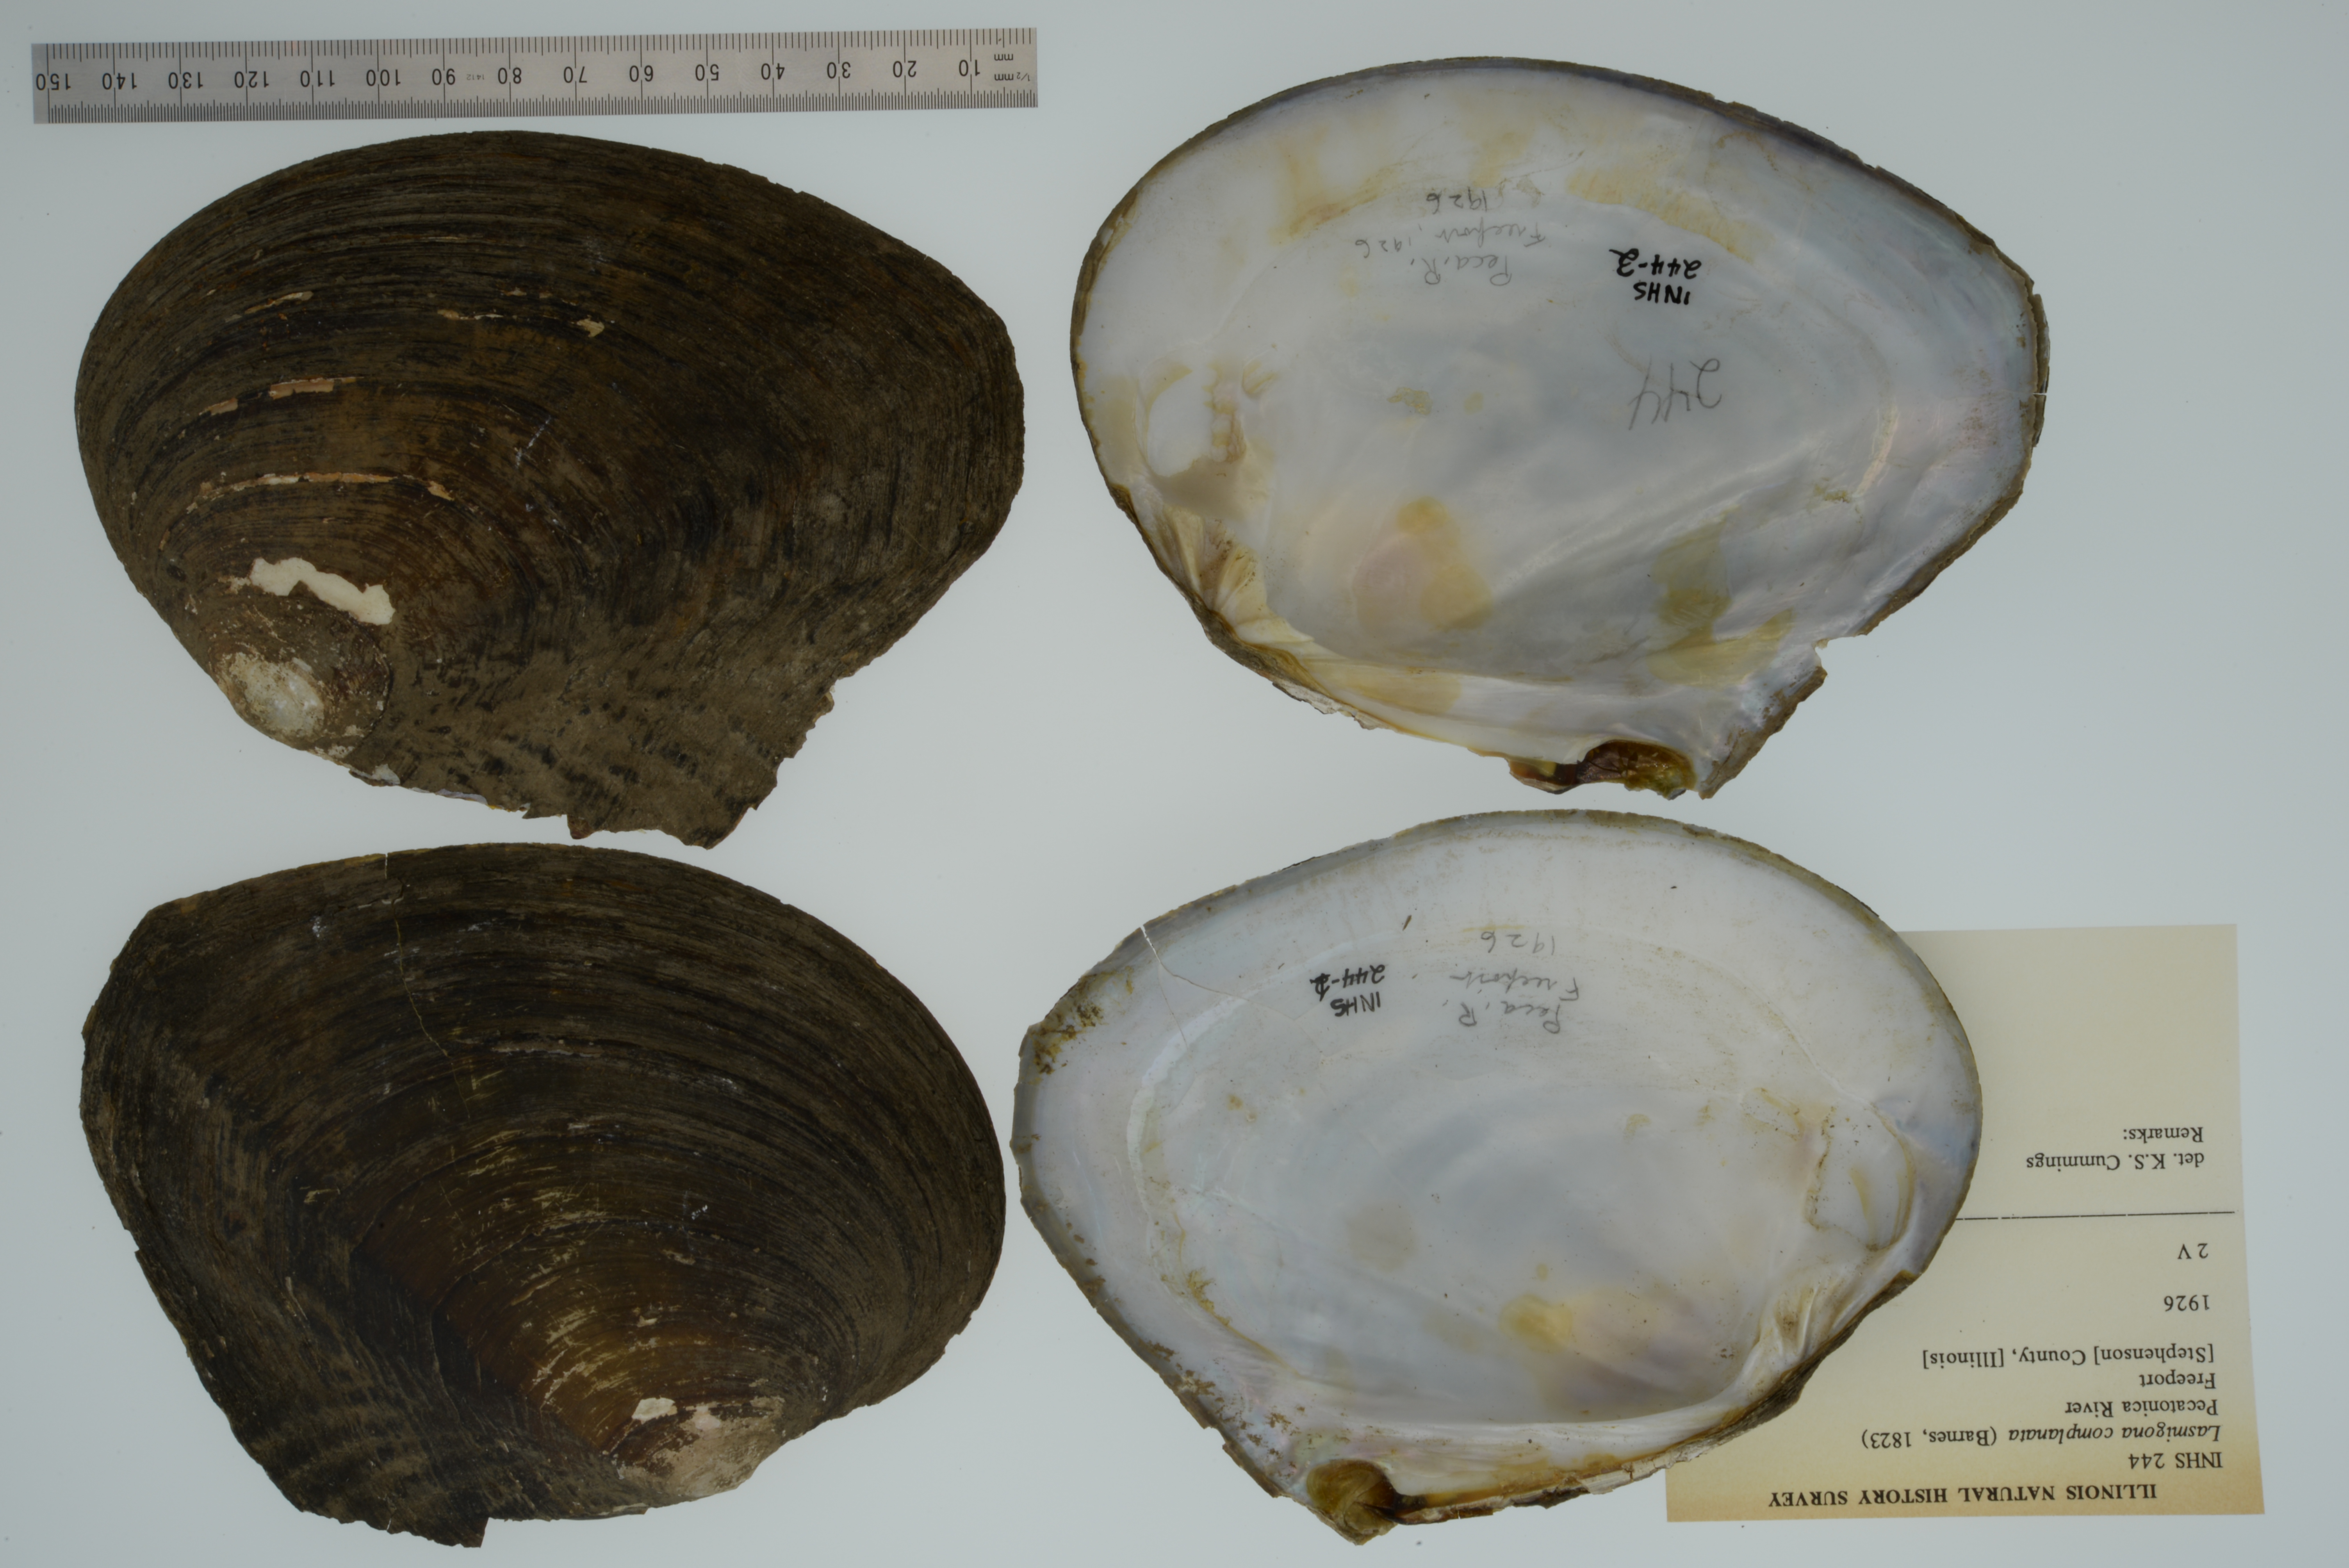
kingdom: Animalia
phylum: Mollusca
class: Bivalvia
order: Unionida
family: Unionidae
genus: Lasmigona
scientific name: Lasmigona complanata
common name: White heelsplitter
